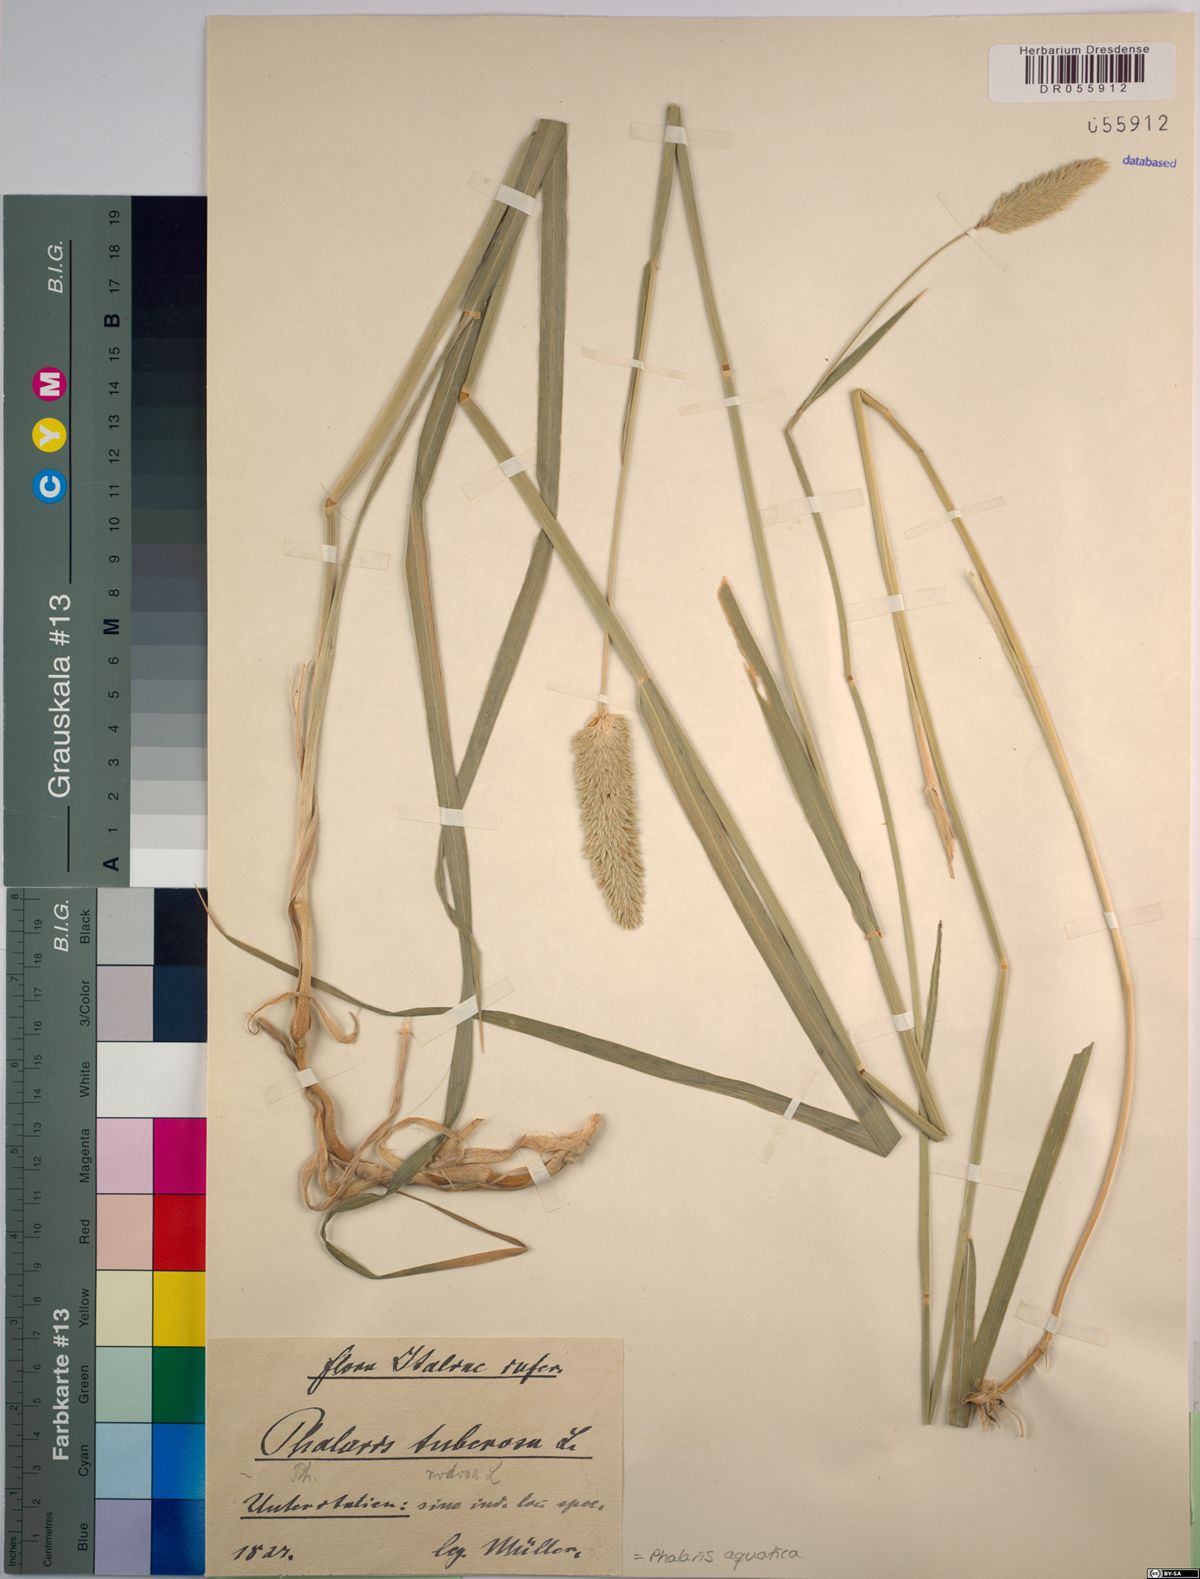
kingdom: Plantae
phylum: Tracheophyta
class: Liliopsida
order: Poales
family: Poaceae
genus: Phalaris
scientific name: Phalaris aquatica
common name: Bulbous canary-grass
